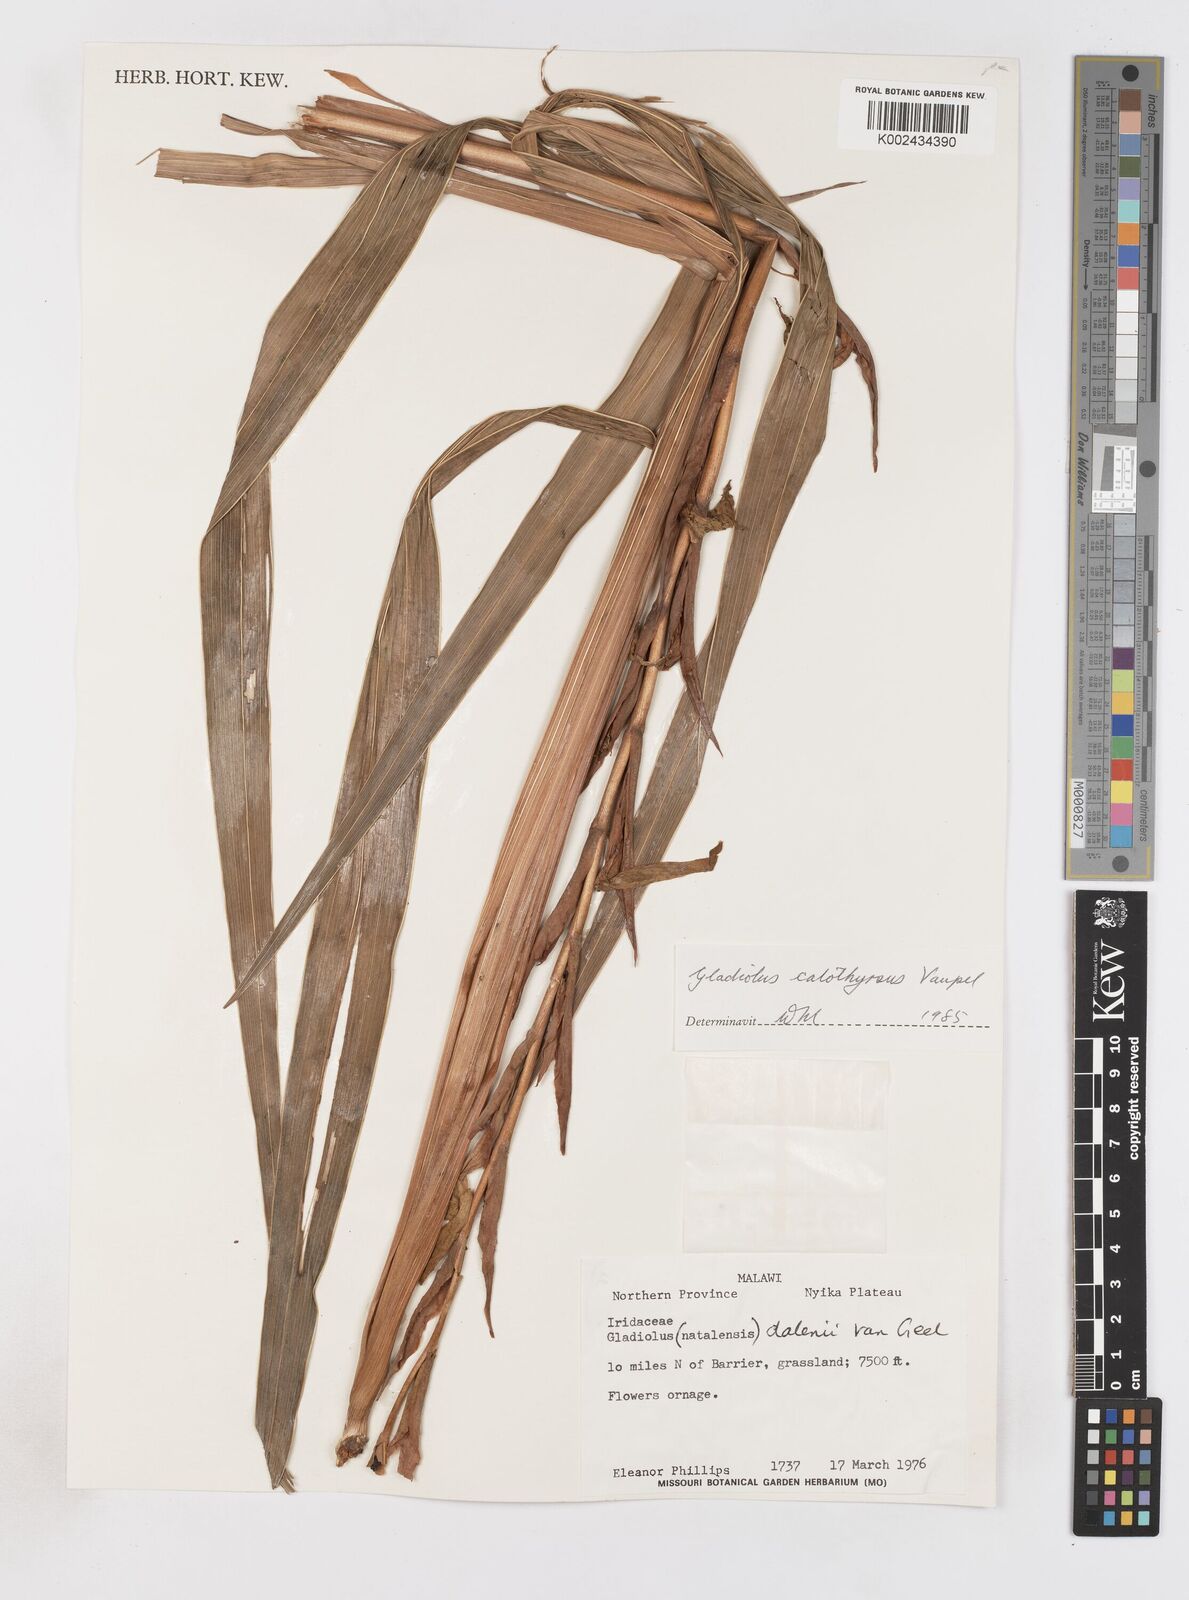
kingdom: Plantae
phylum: Tracheophyta
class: Liliopsida
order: Asparagales
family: Iridaceae
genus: Gladiolus
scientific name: Gladiolus dalenii
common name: Cornflag
